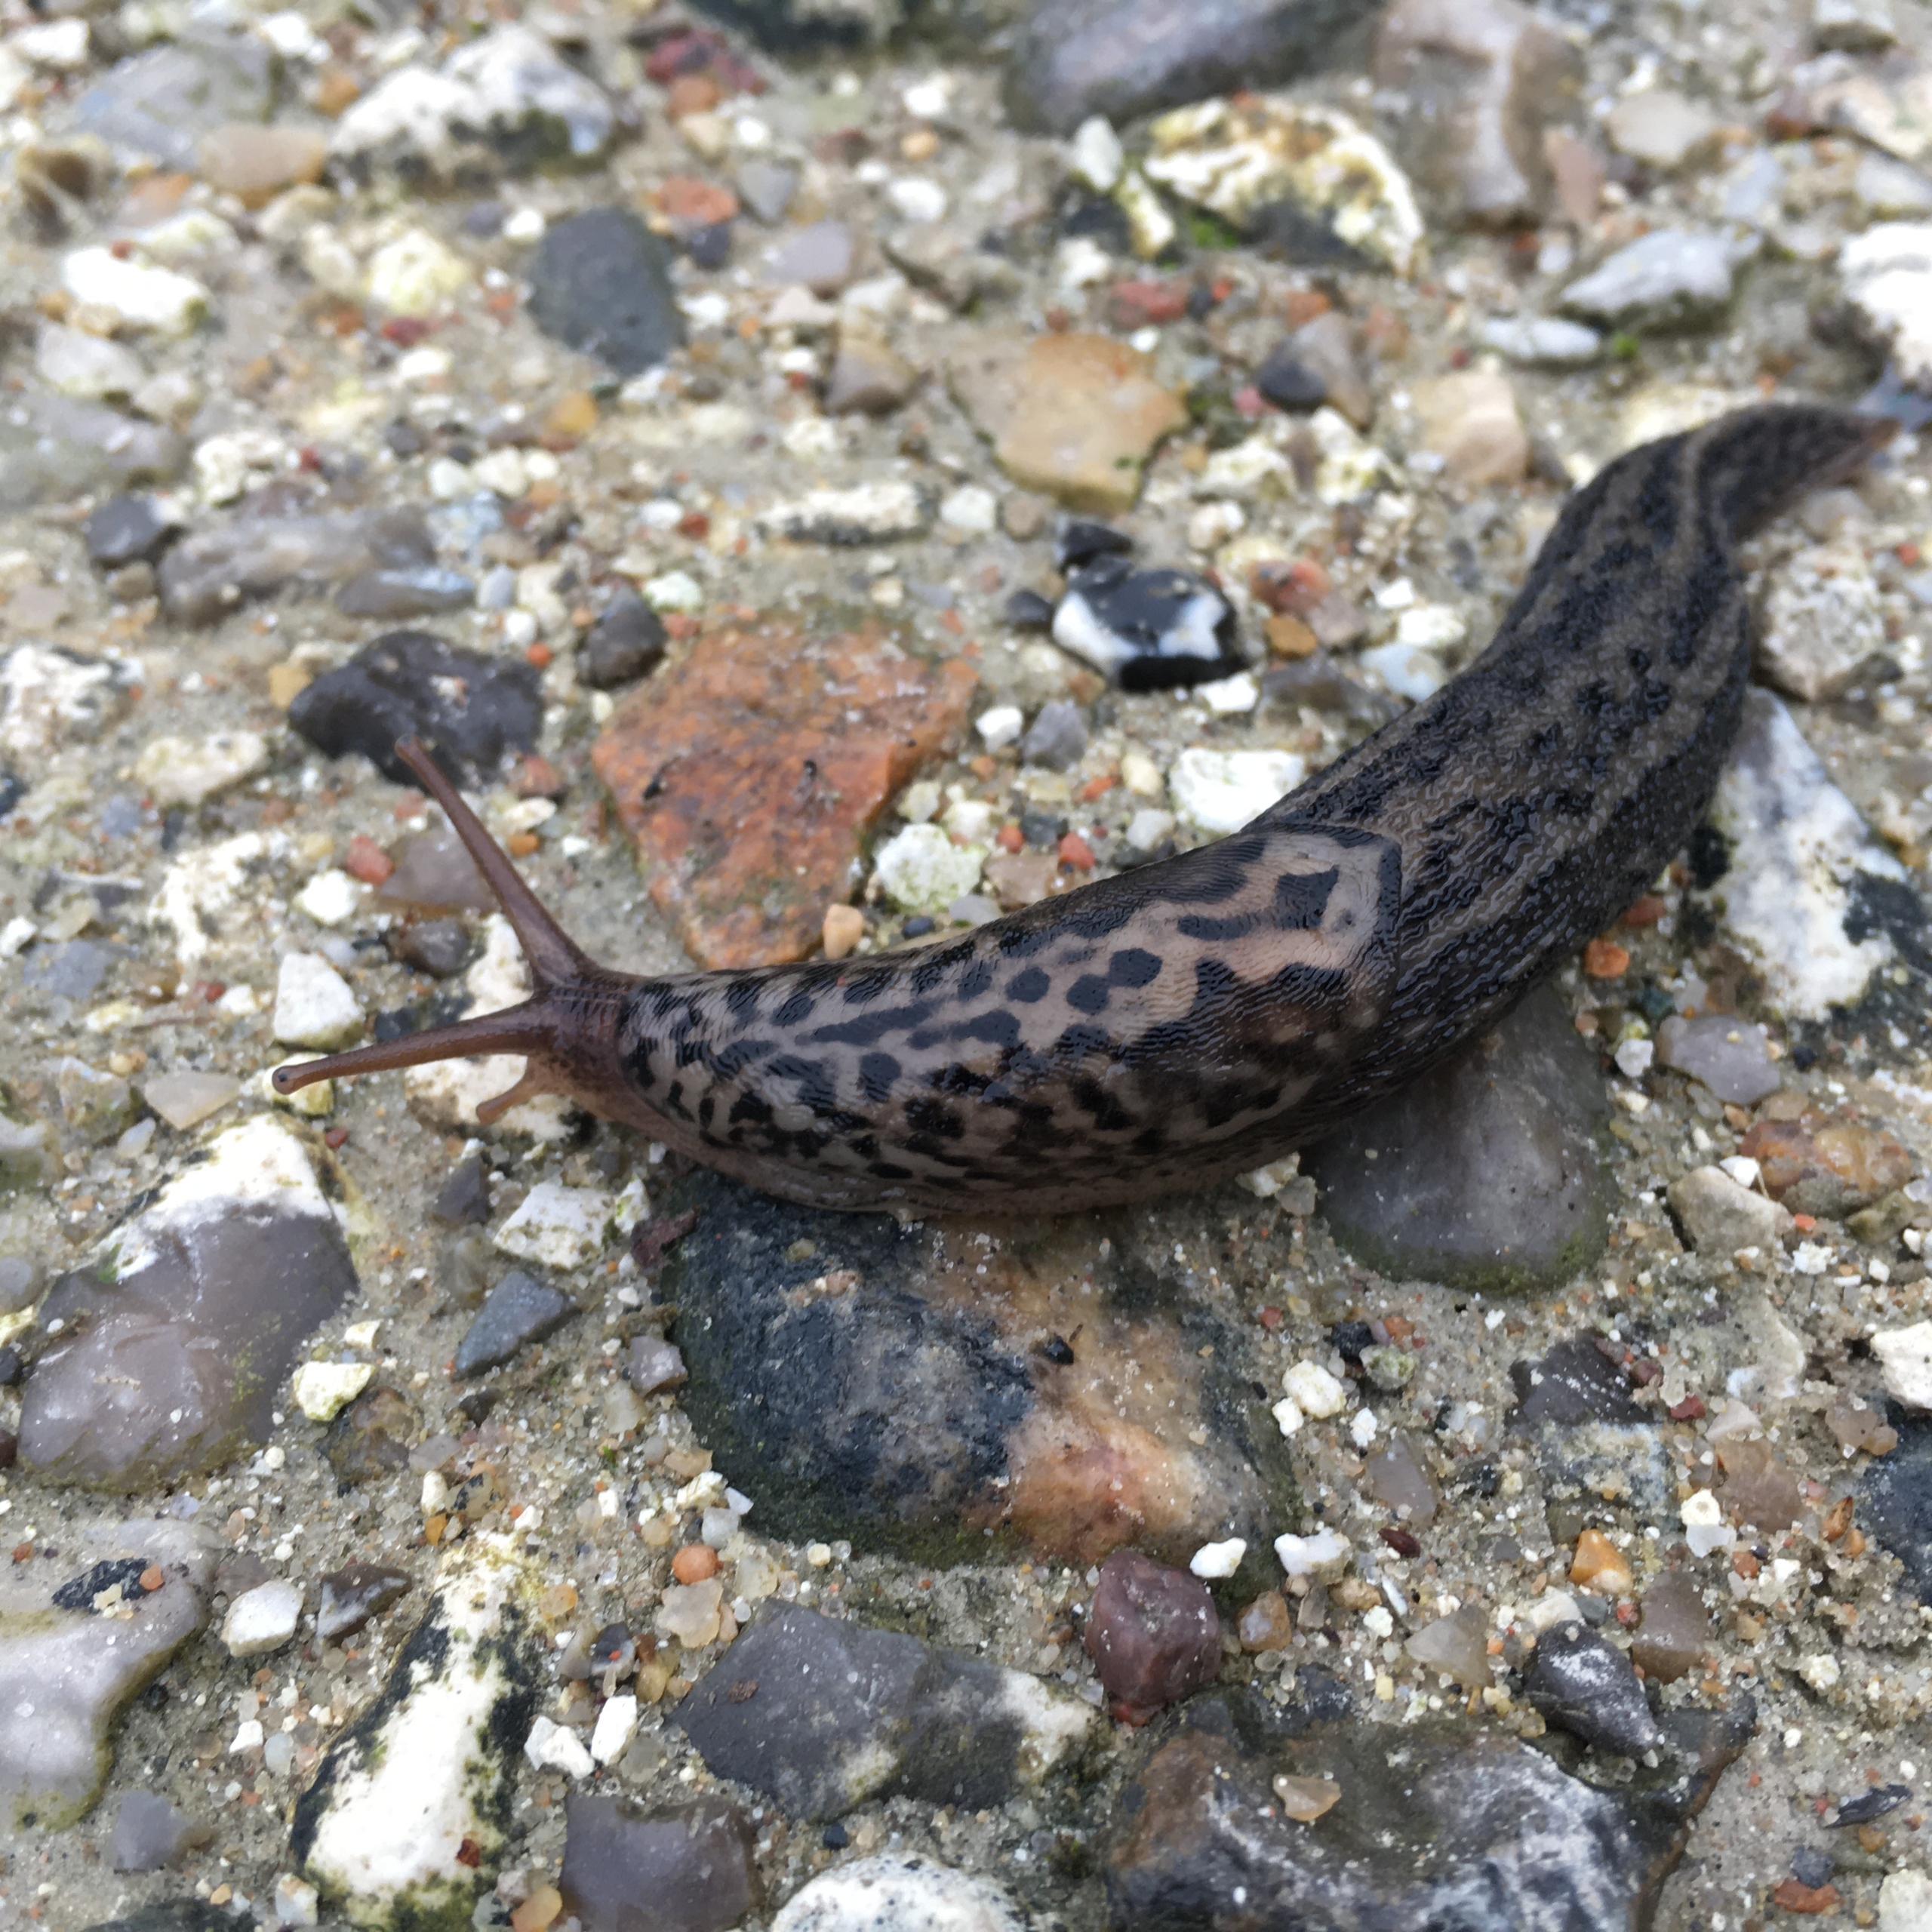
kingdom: Animalia
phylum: Mollusca
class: Gastropoda
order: Stylommatophora
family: Limacidae
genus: Limax
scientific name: Limax maximus
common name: Pantersnegl
